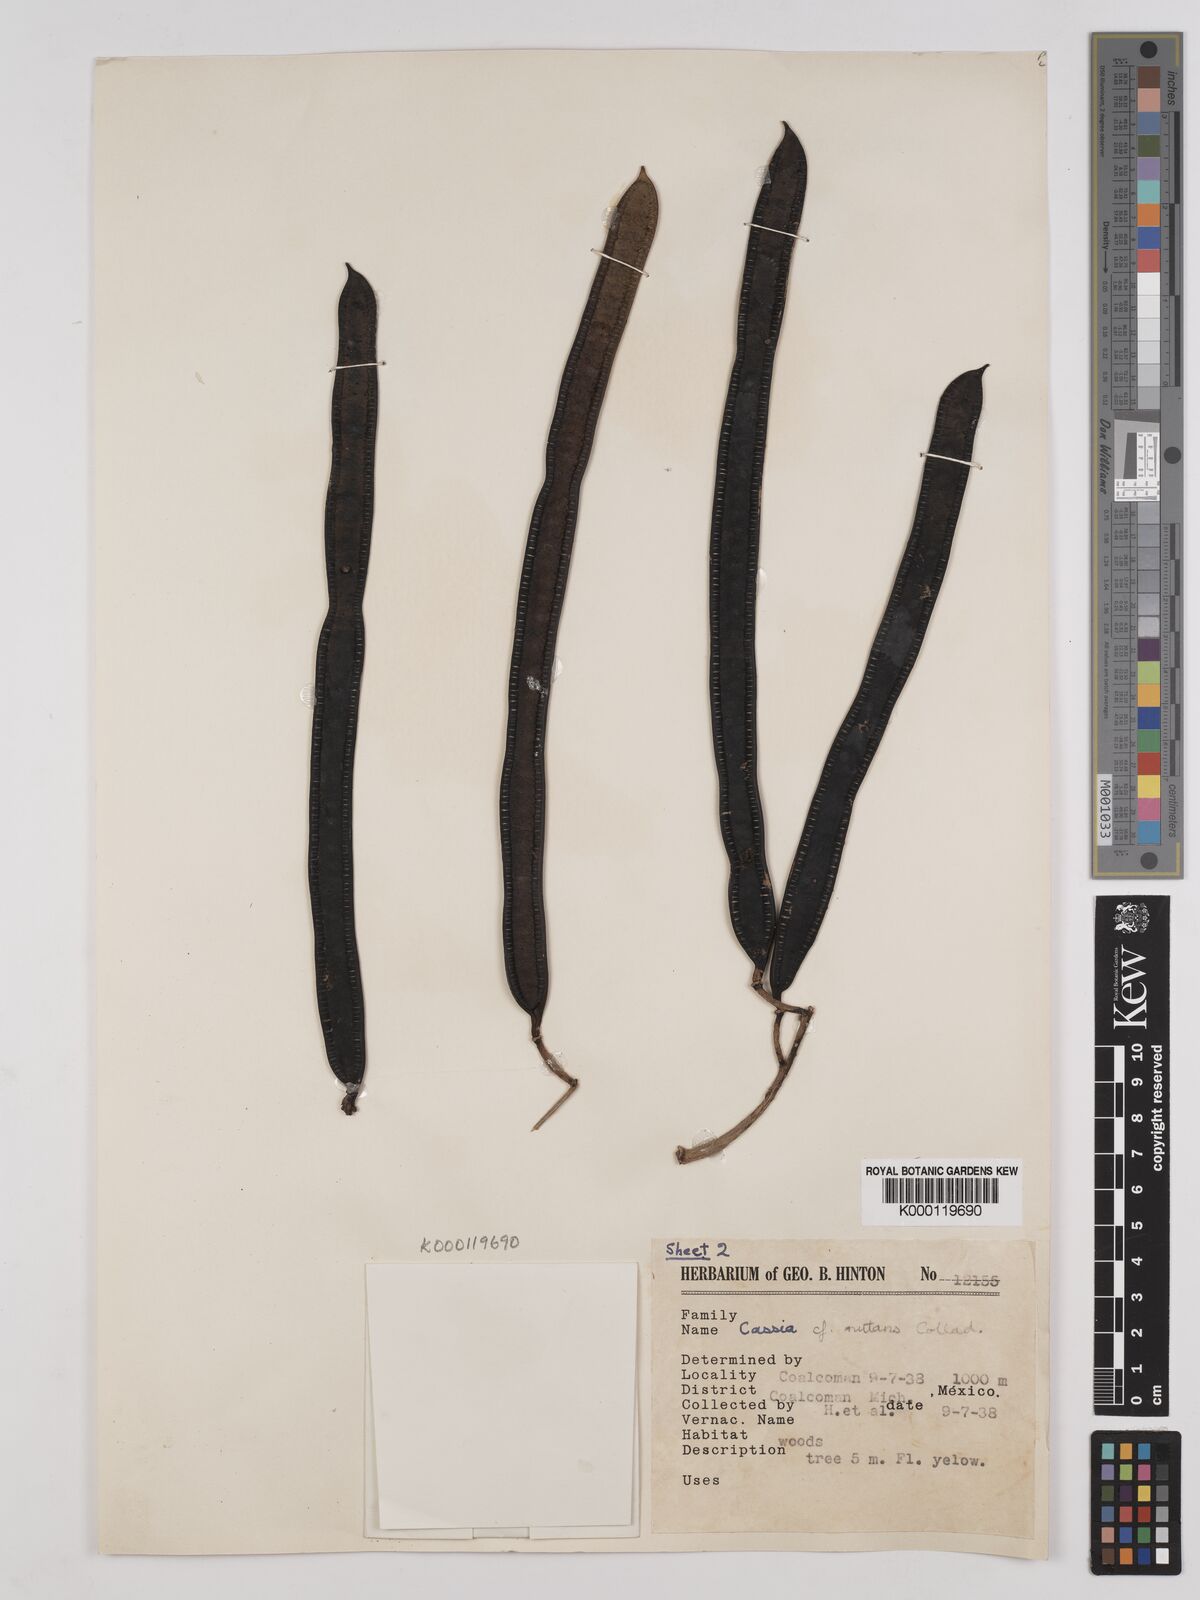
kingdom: Plantae
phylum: Tracheophyta
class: Magnoliopsida
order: Fabales
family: Fabaceae
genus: Senna
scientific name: Senna mollissima
